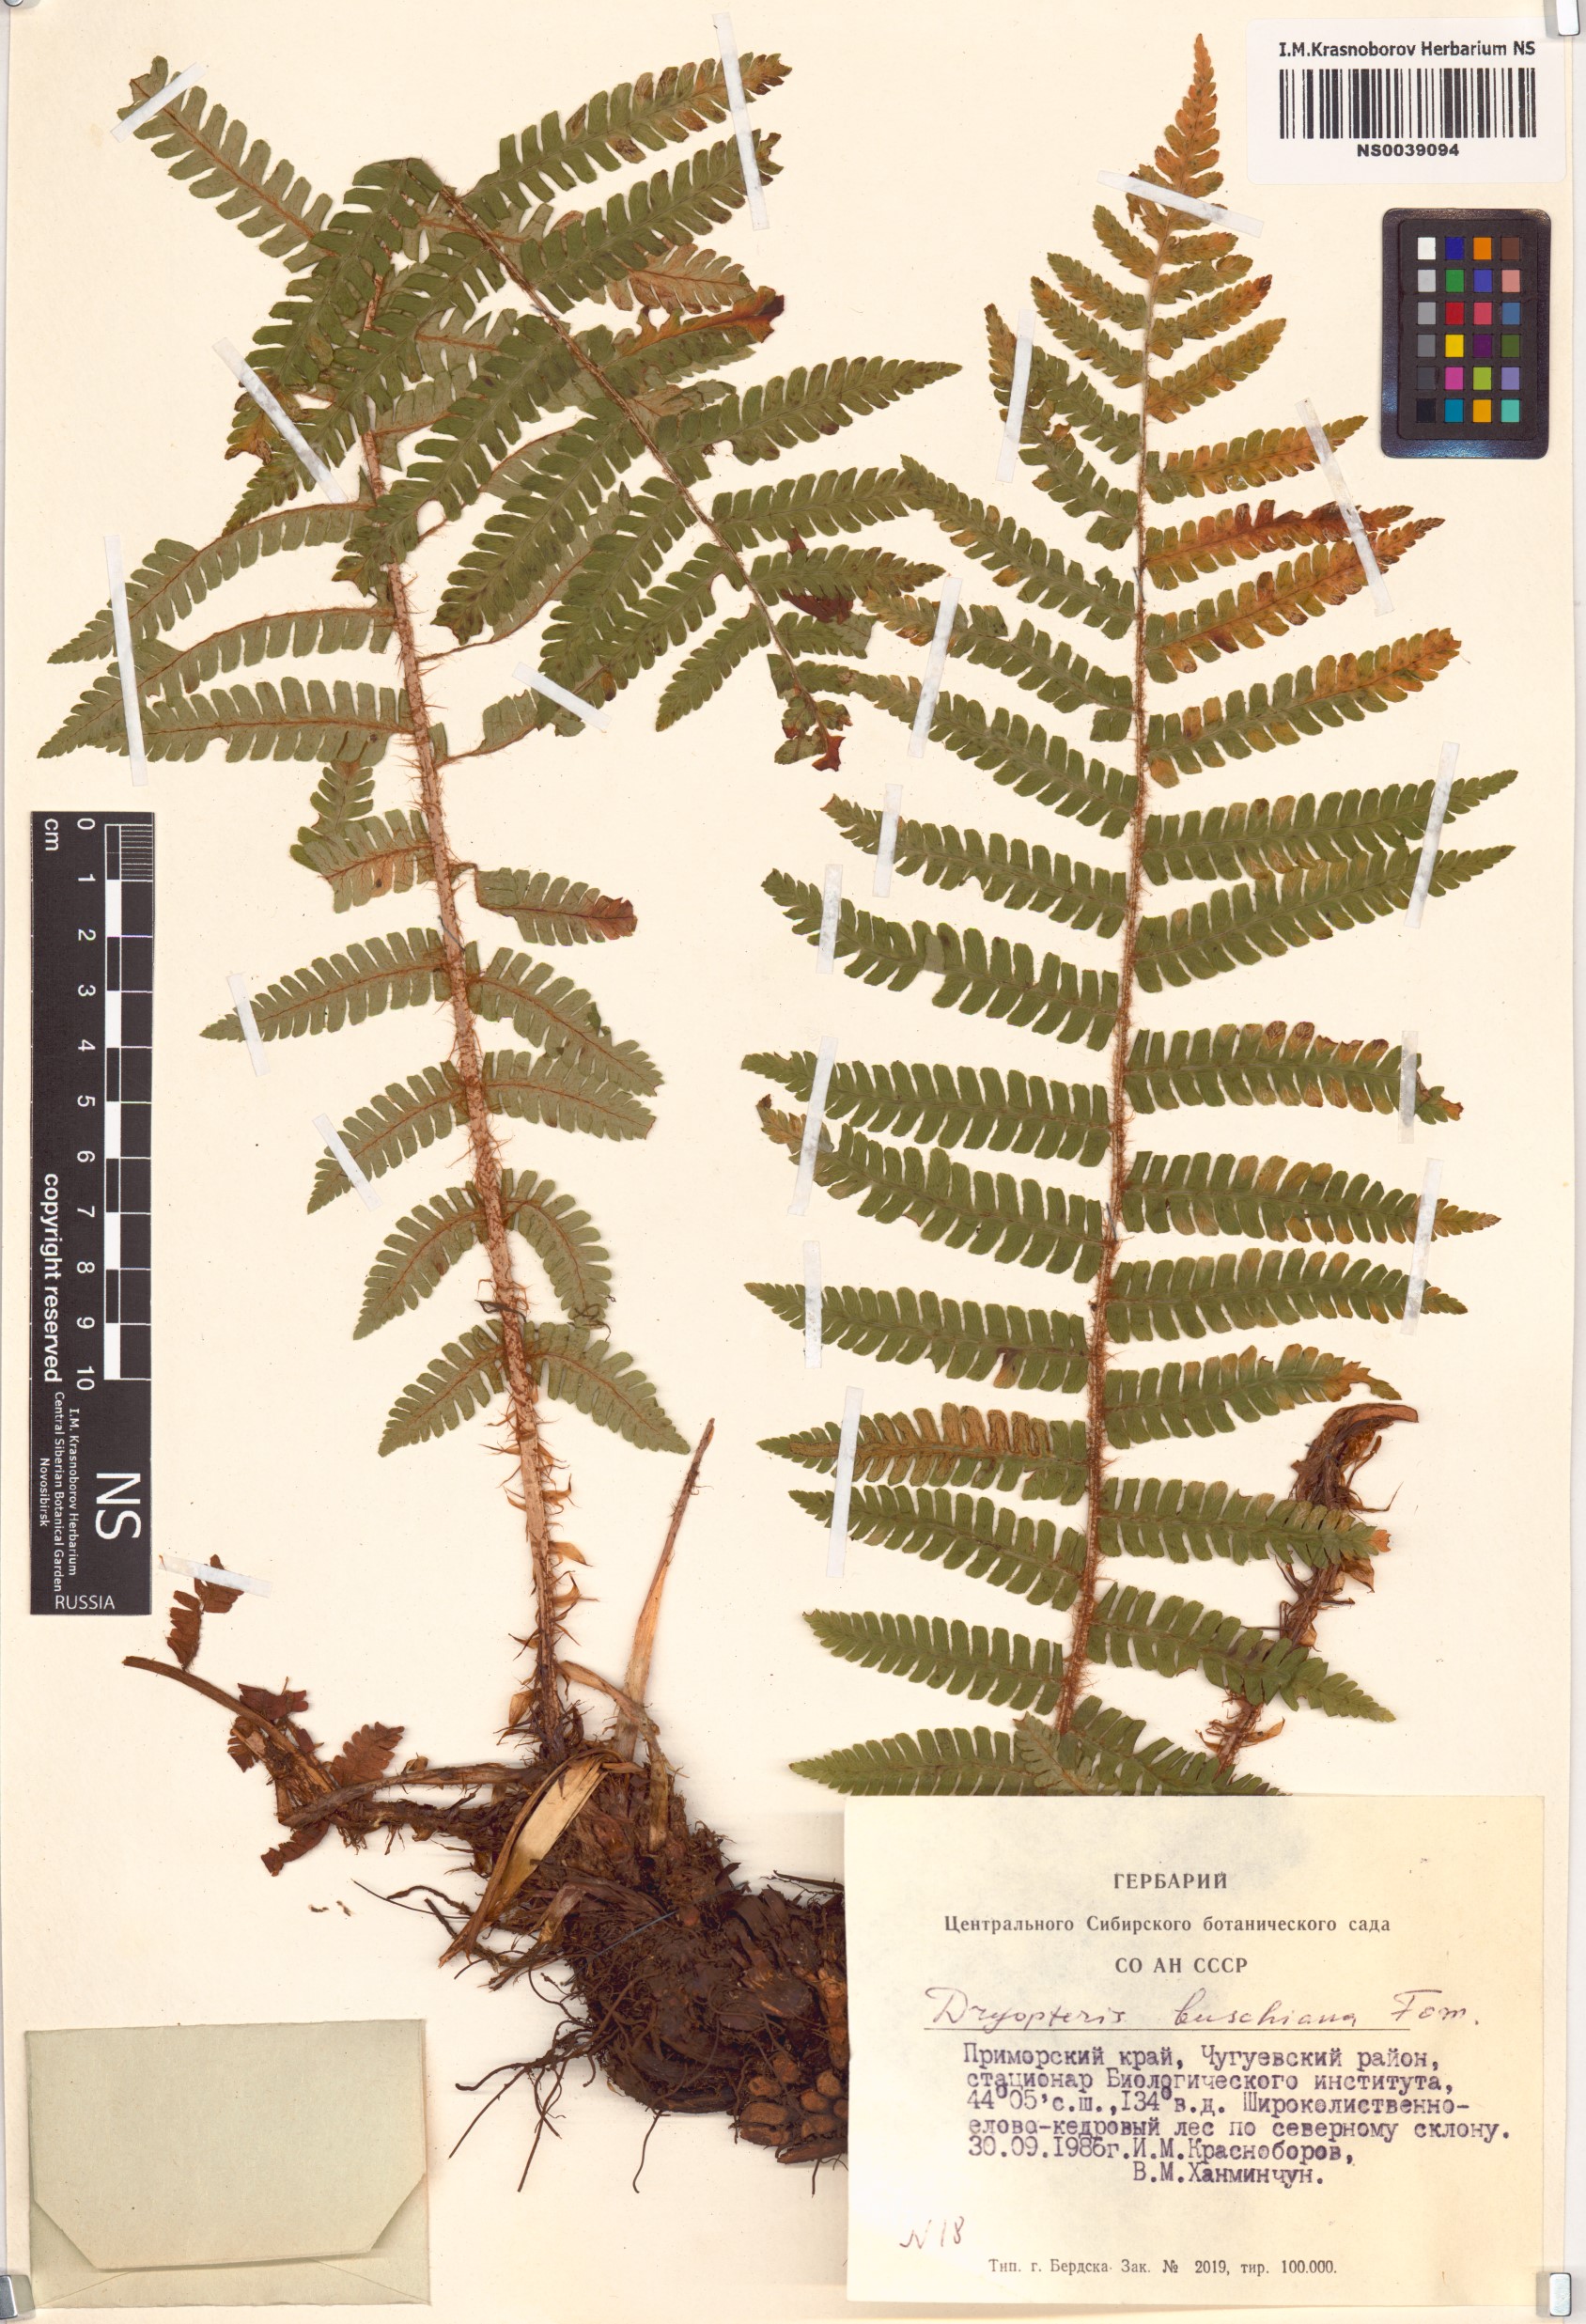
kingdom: Plantae
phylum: Tracheophyta
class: Polypodiopsida
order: Polypodiales
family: Dryopteridaceae
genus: Dryopteris
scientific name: Dryopteris crassirhizoma
